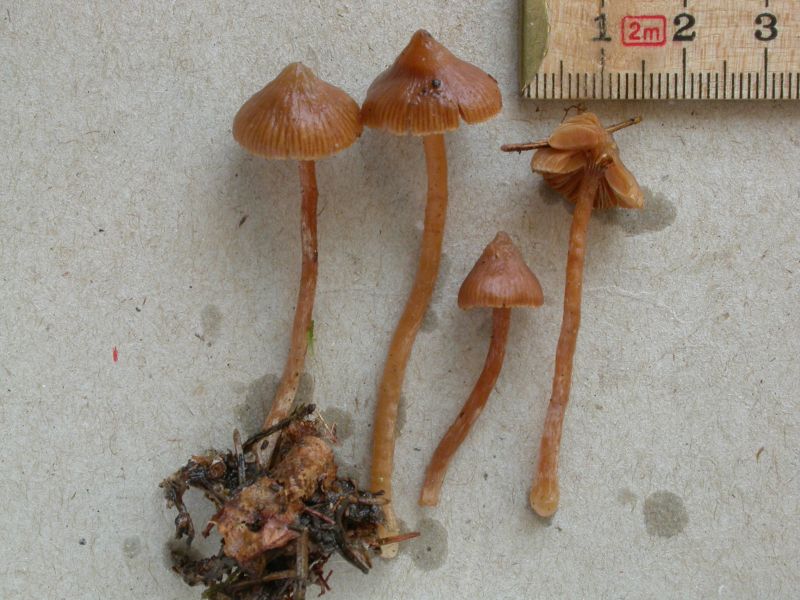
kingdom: Fungi
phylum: Basidiomycota
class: Agaricomycetes
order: Agaricales
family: Cortinariaceae
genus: Cortinarius
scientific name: Cortinarius acutus
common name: spids slørhat
